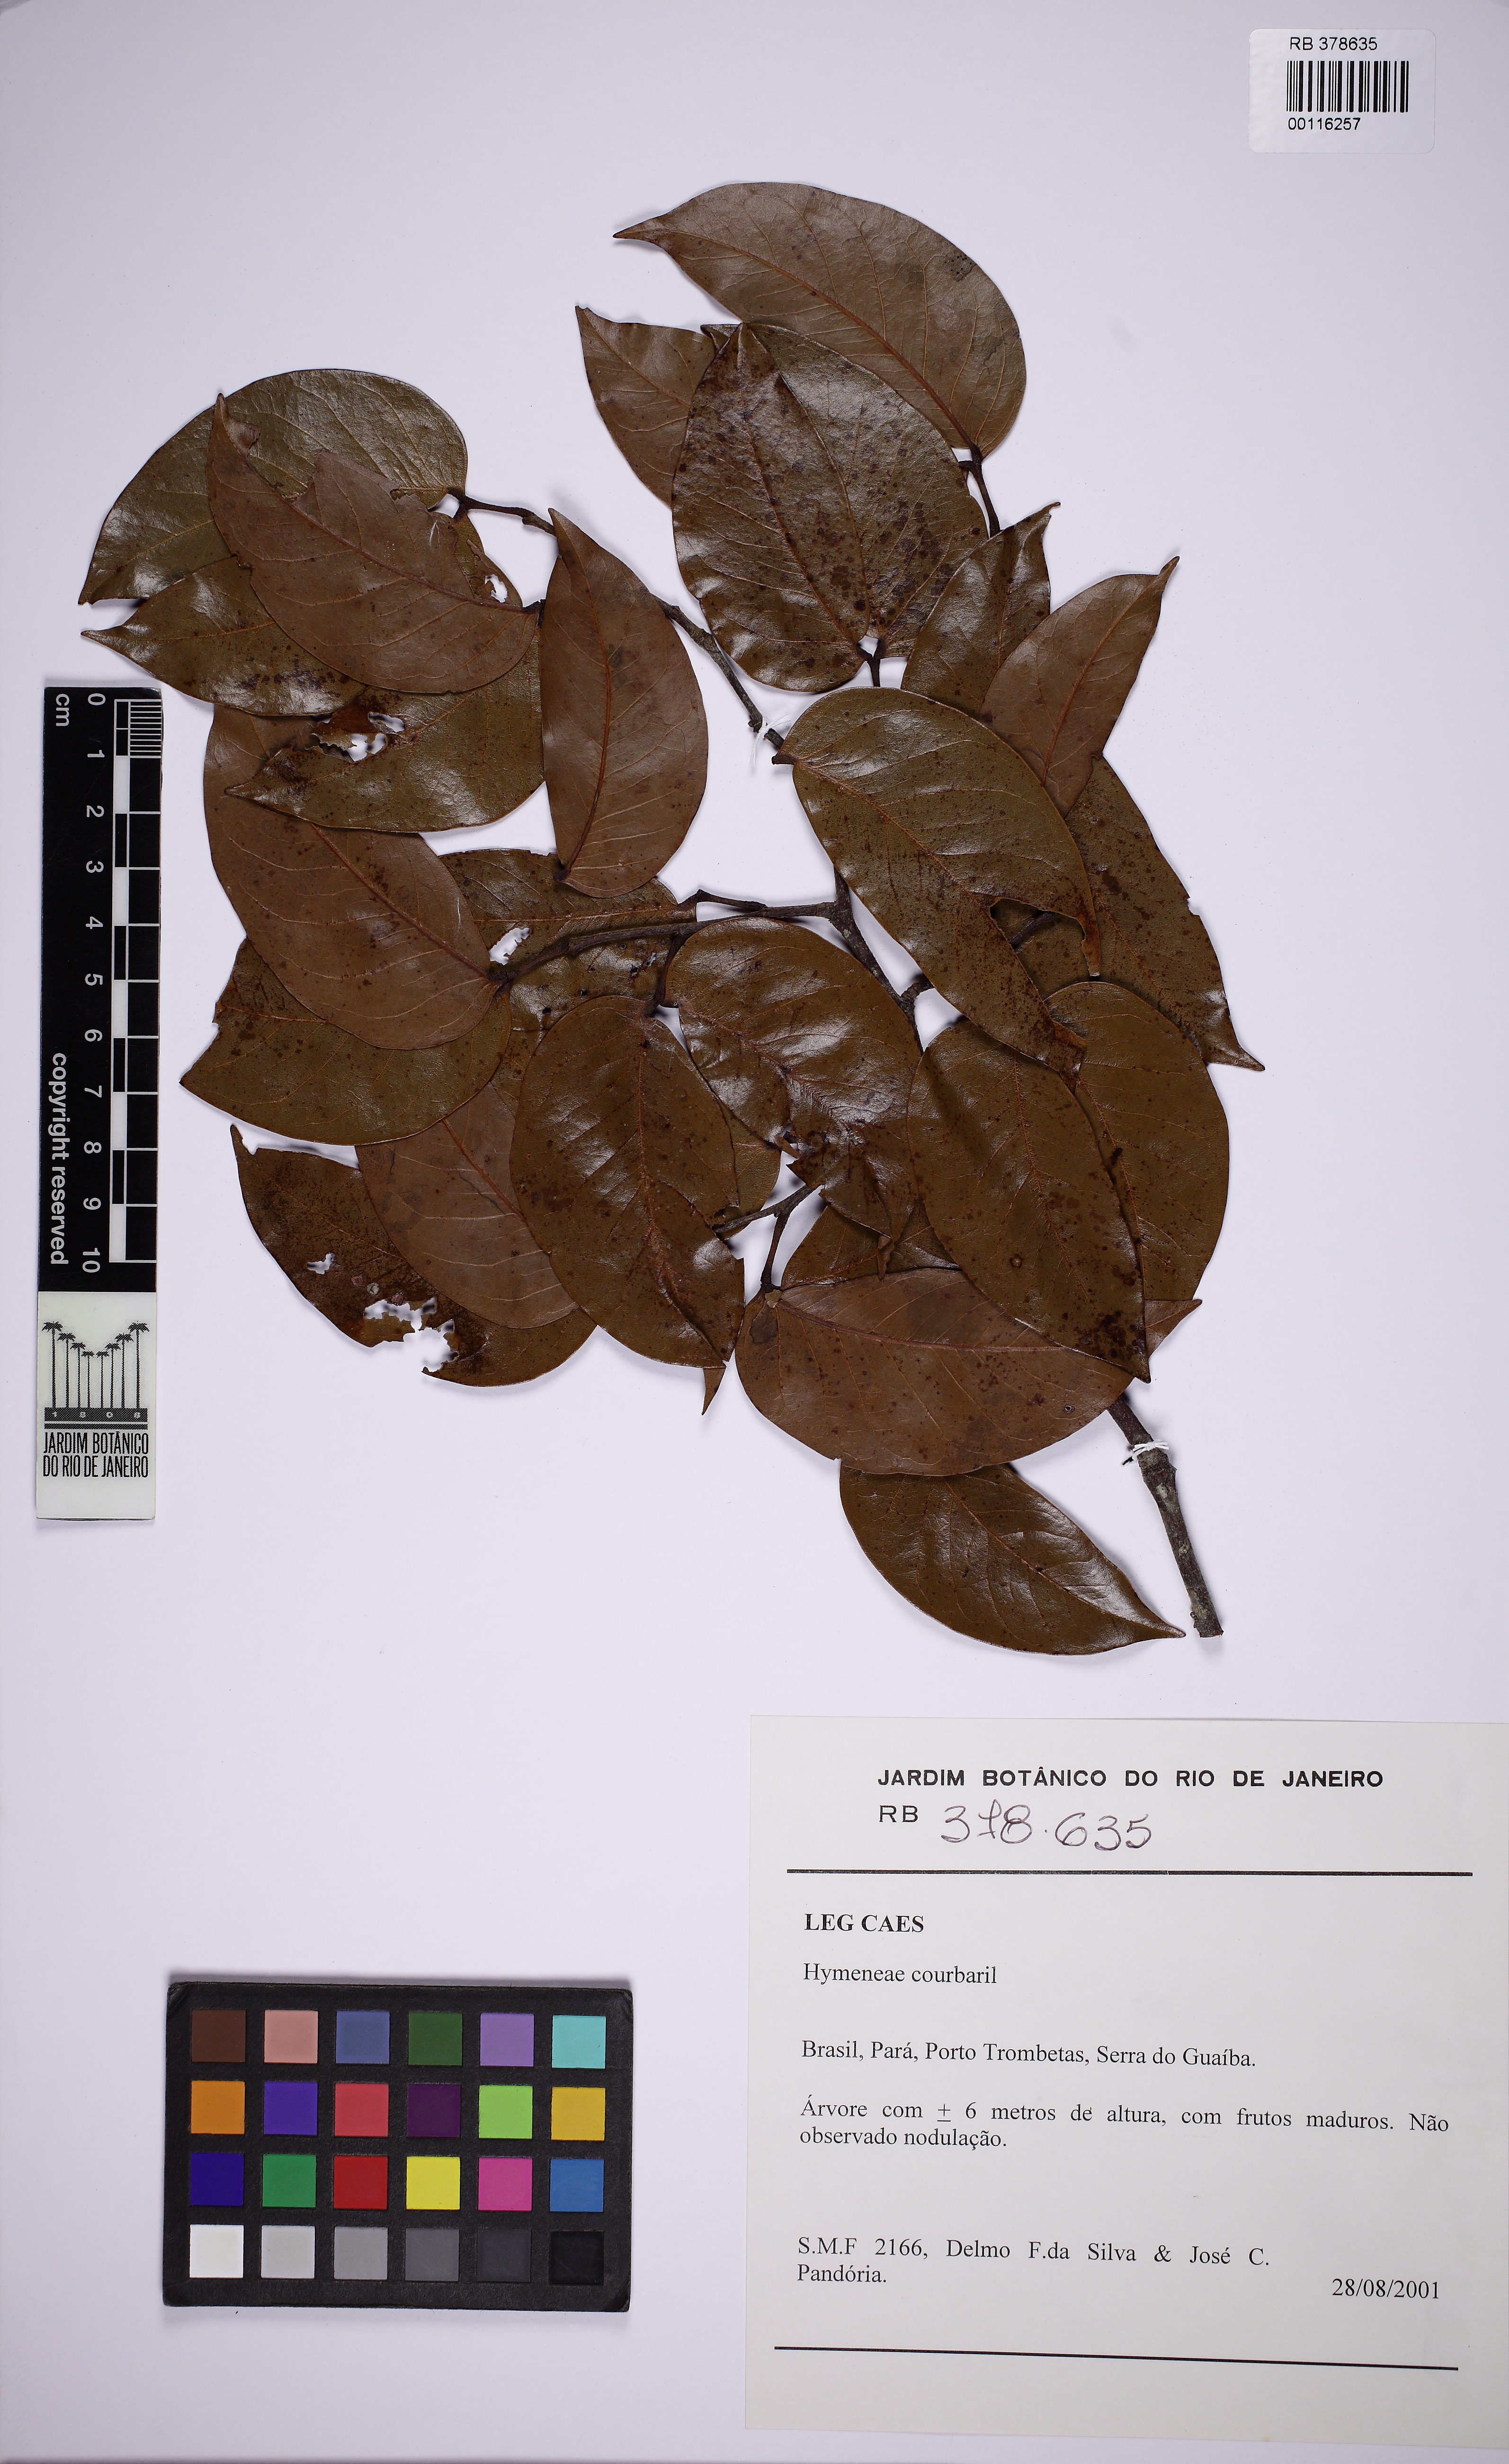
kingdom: Plantae
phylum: Tracheophyta
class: Magnoliopsida
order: Fabales
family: Fabaceae
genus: Hymenaea
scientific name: Hymenaea courbaril
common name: Brazilian copal
